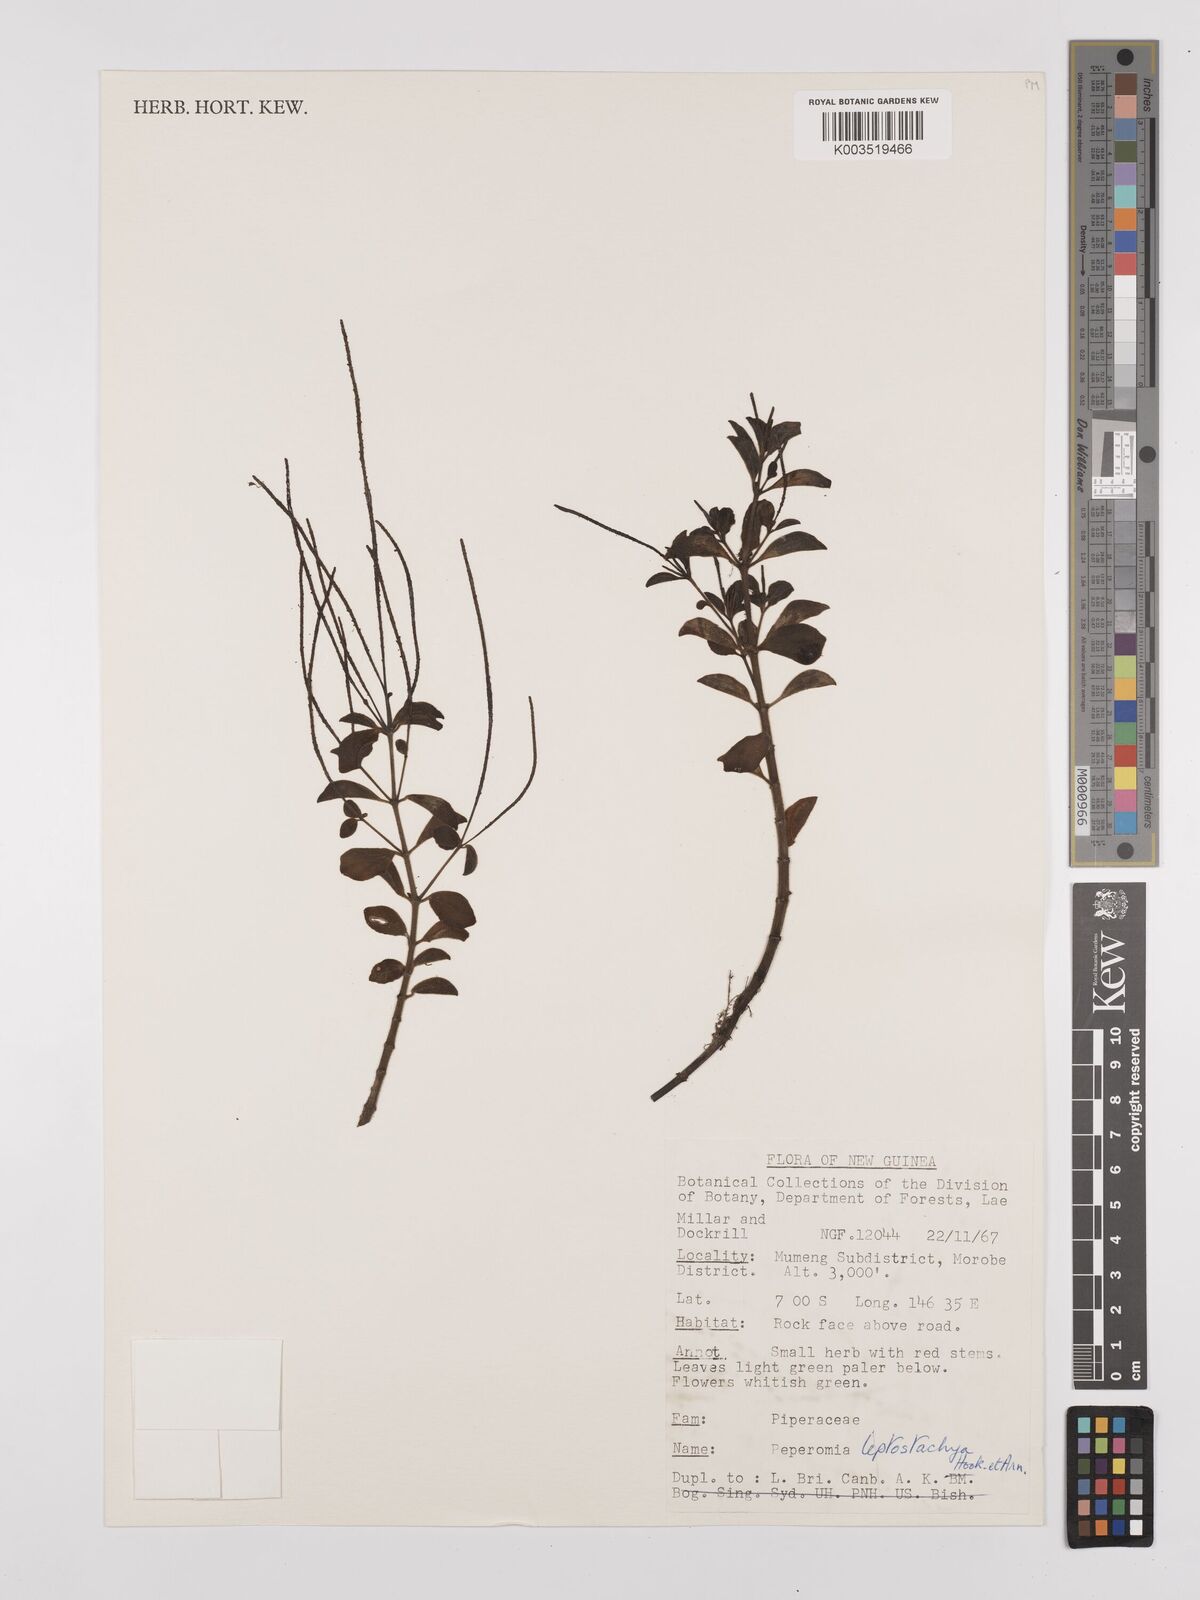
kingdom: Plantae
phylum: Tracheophyta
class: Magnoliopsida
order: Piperales
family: Piperaceae
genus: Peperomia
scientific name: Peperomia leptostachya
